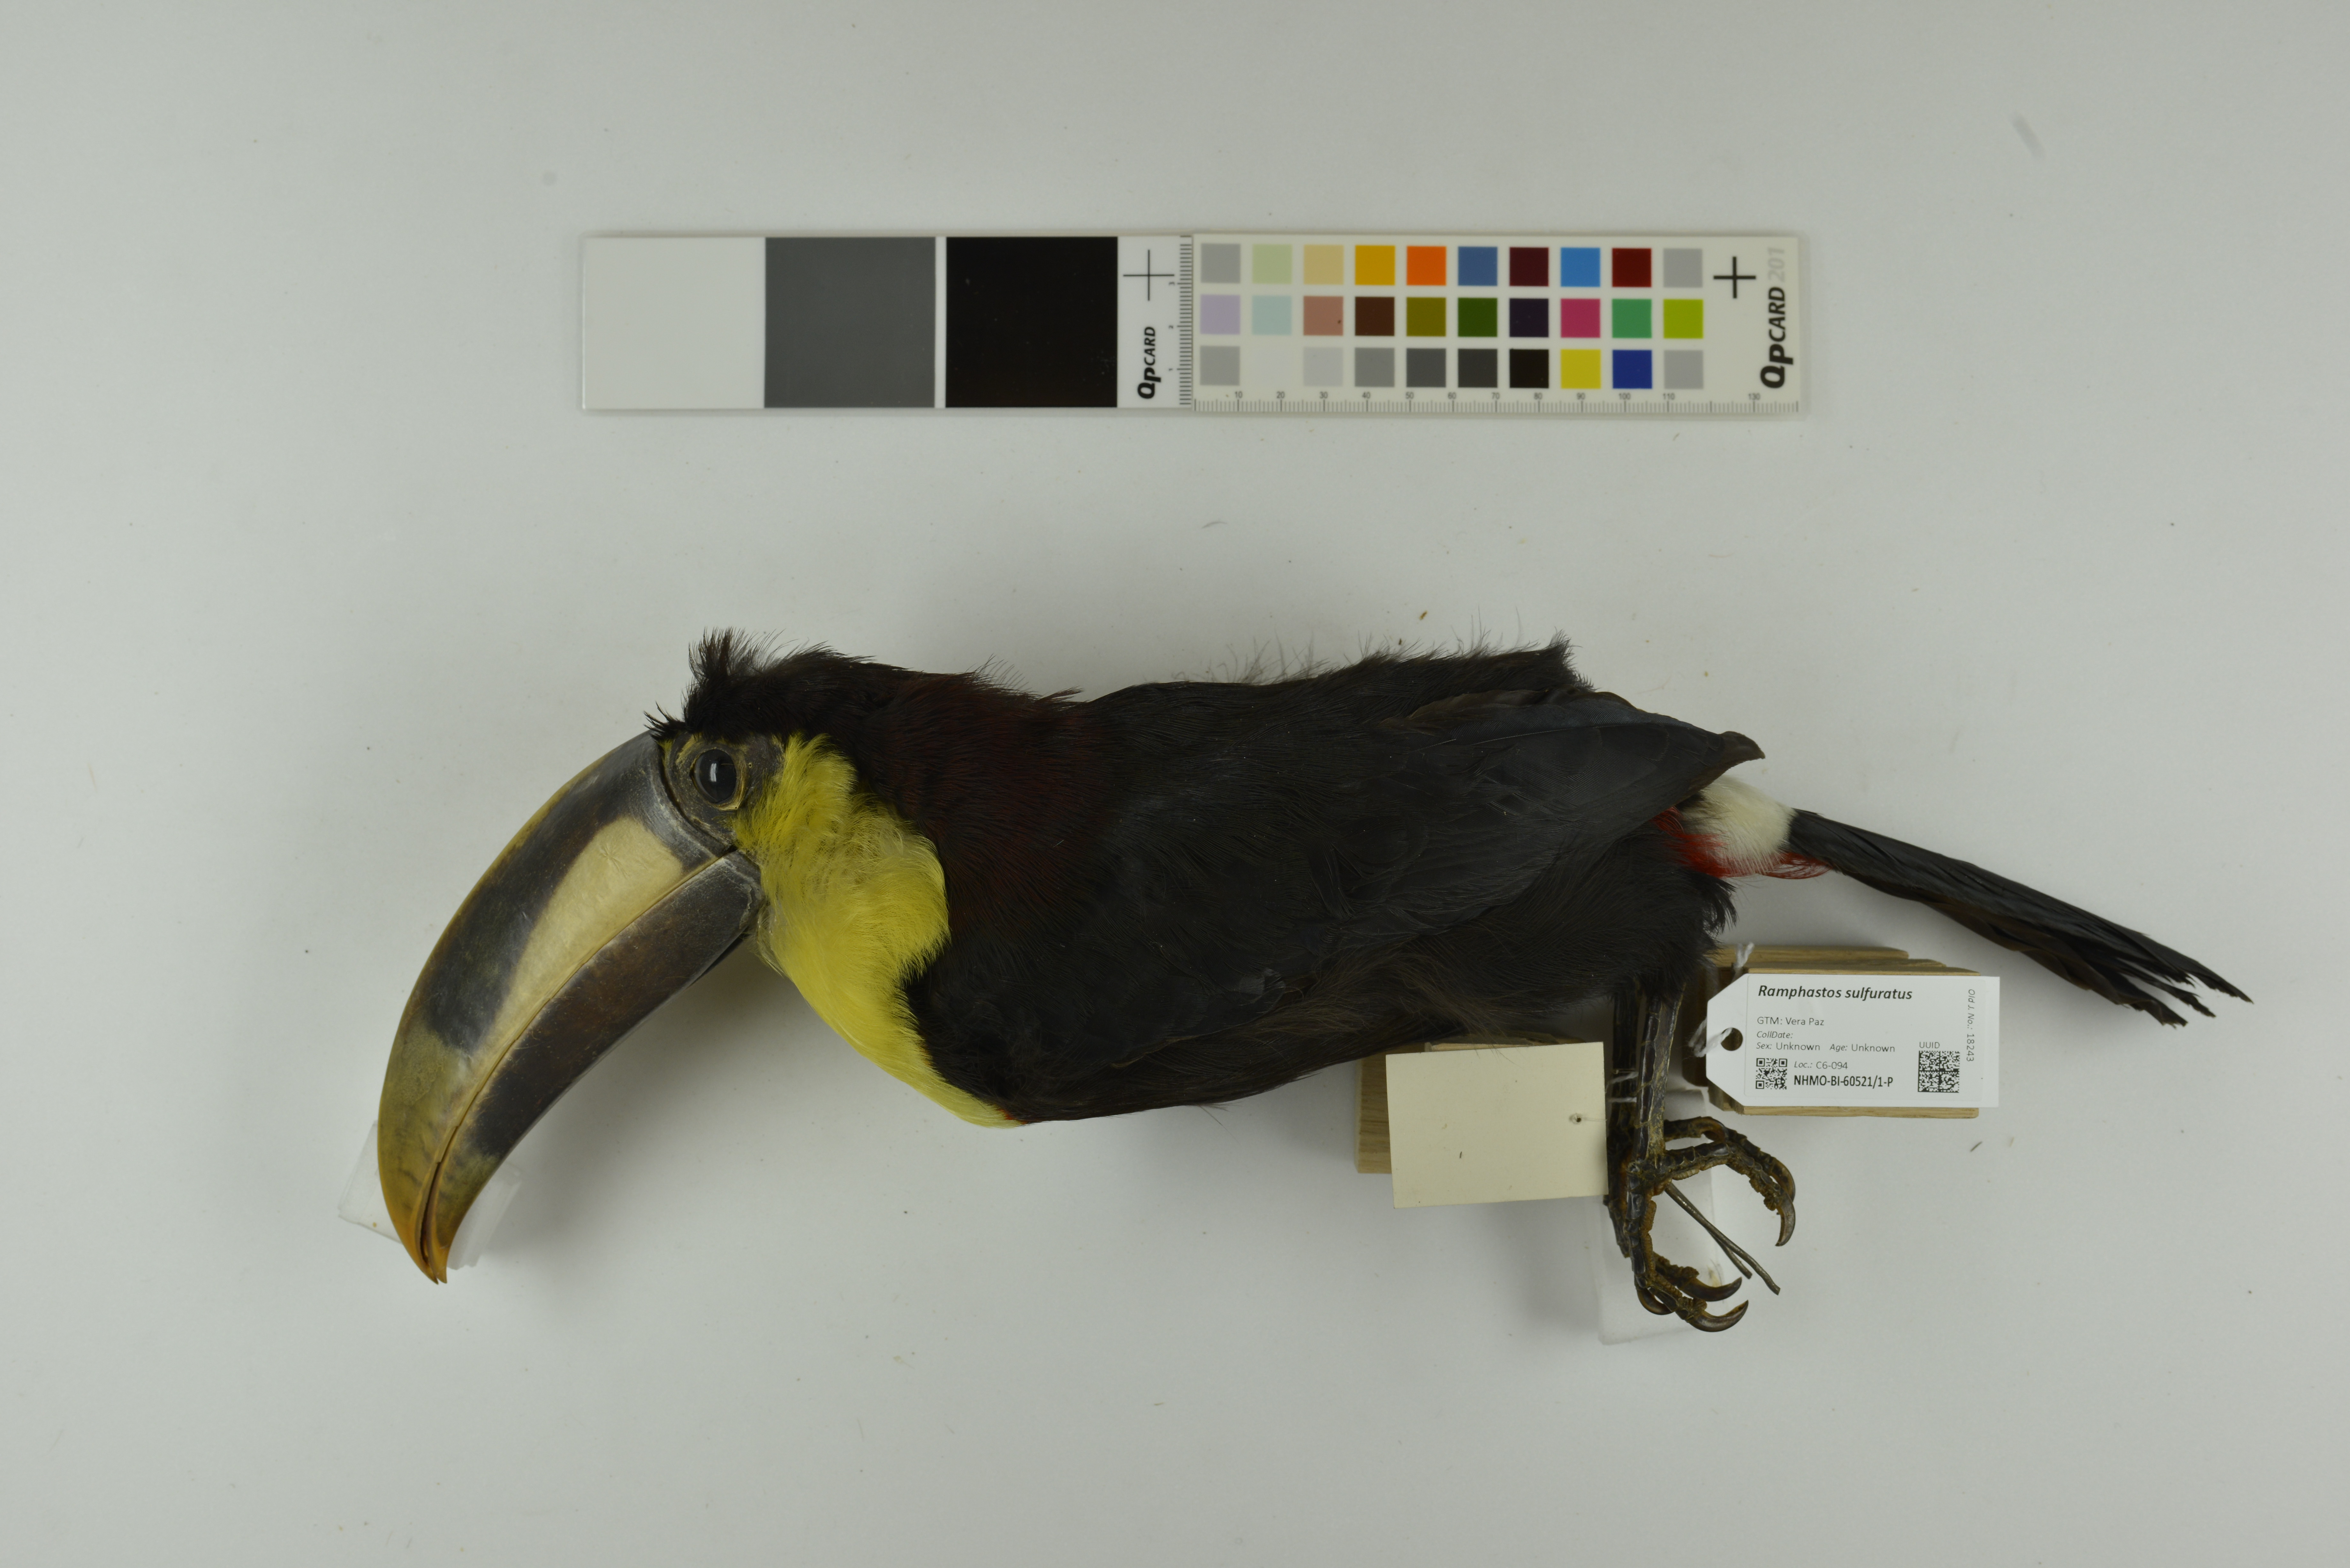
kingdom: Animalia
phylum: Chordata
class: Aves
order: Piciformes
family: Ramphastidae
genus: Ramphastos
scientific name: Ramphastos sulfuratus
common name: Keel-billed toucan
